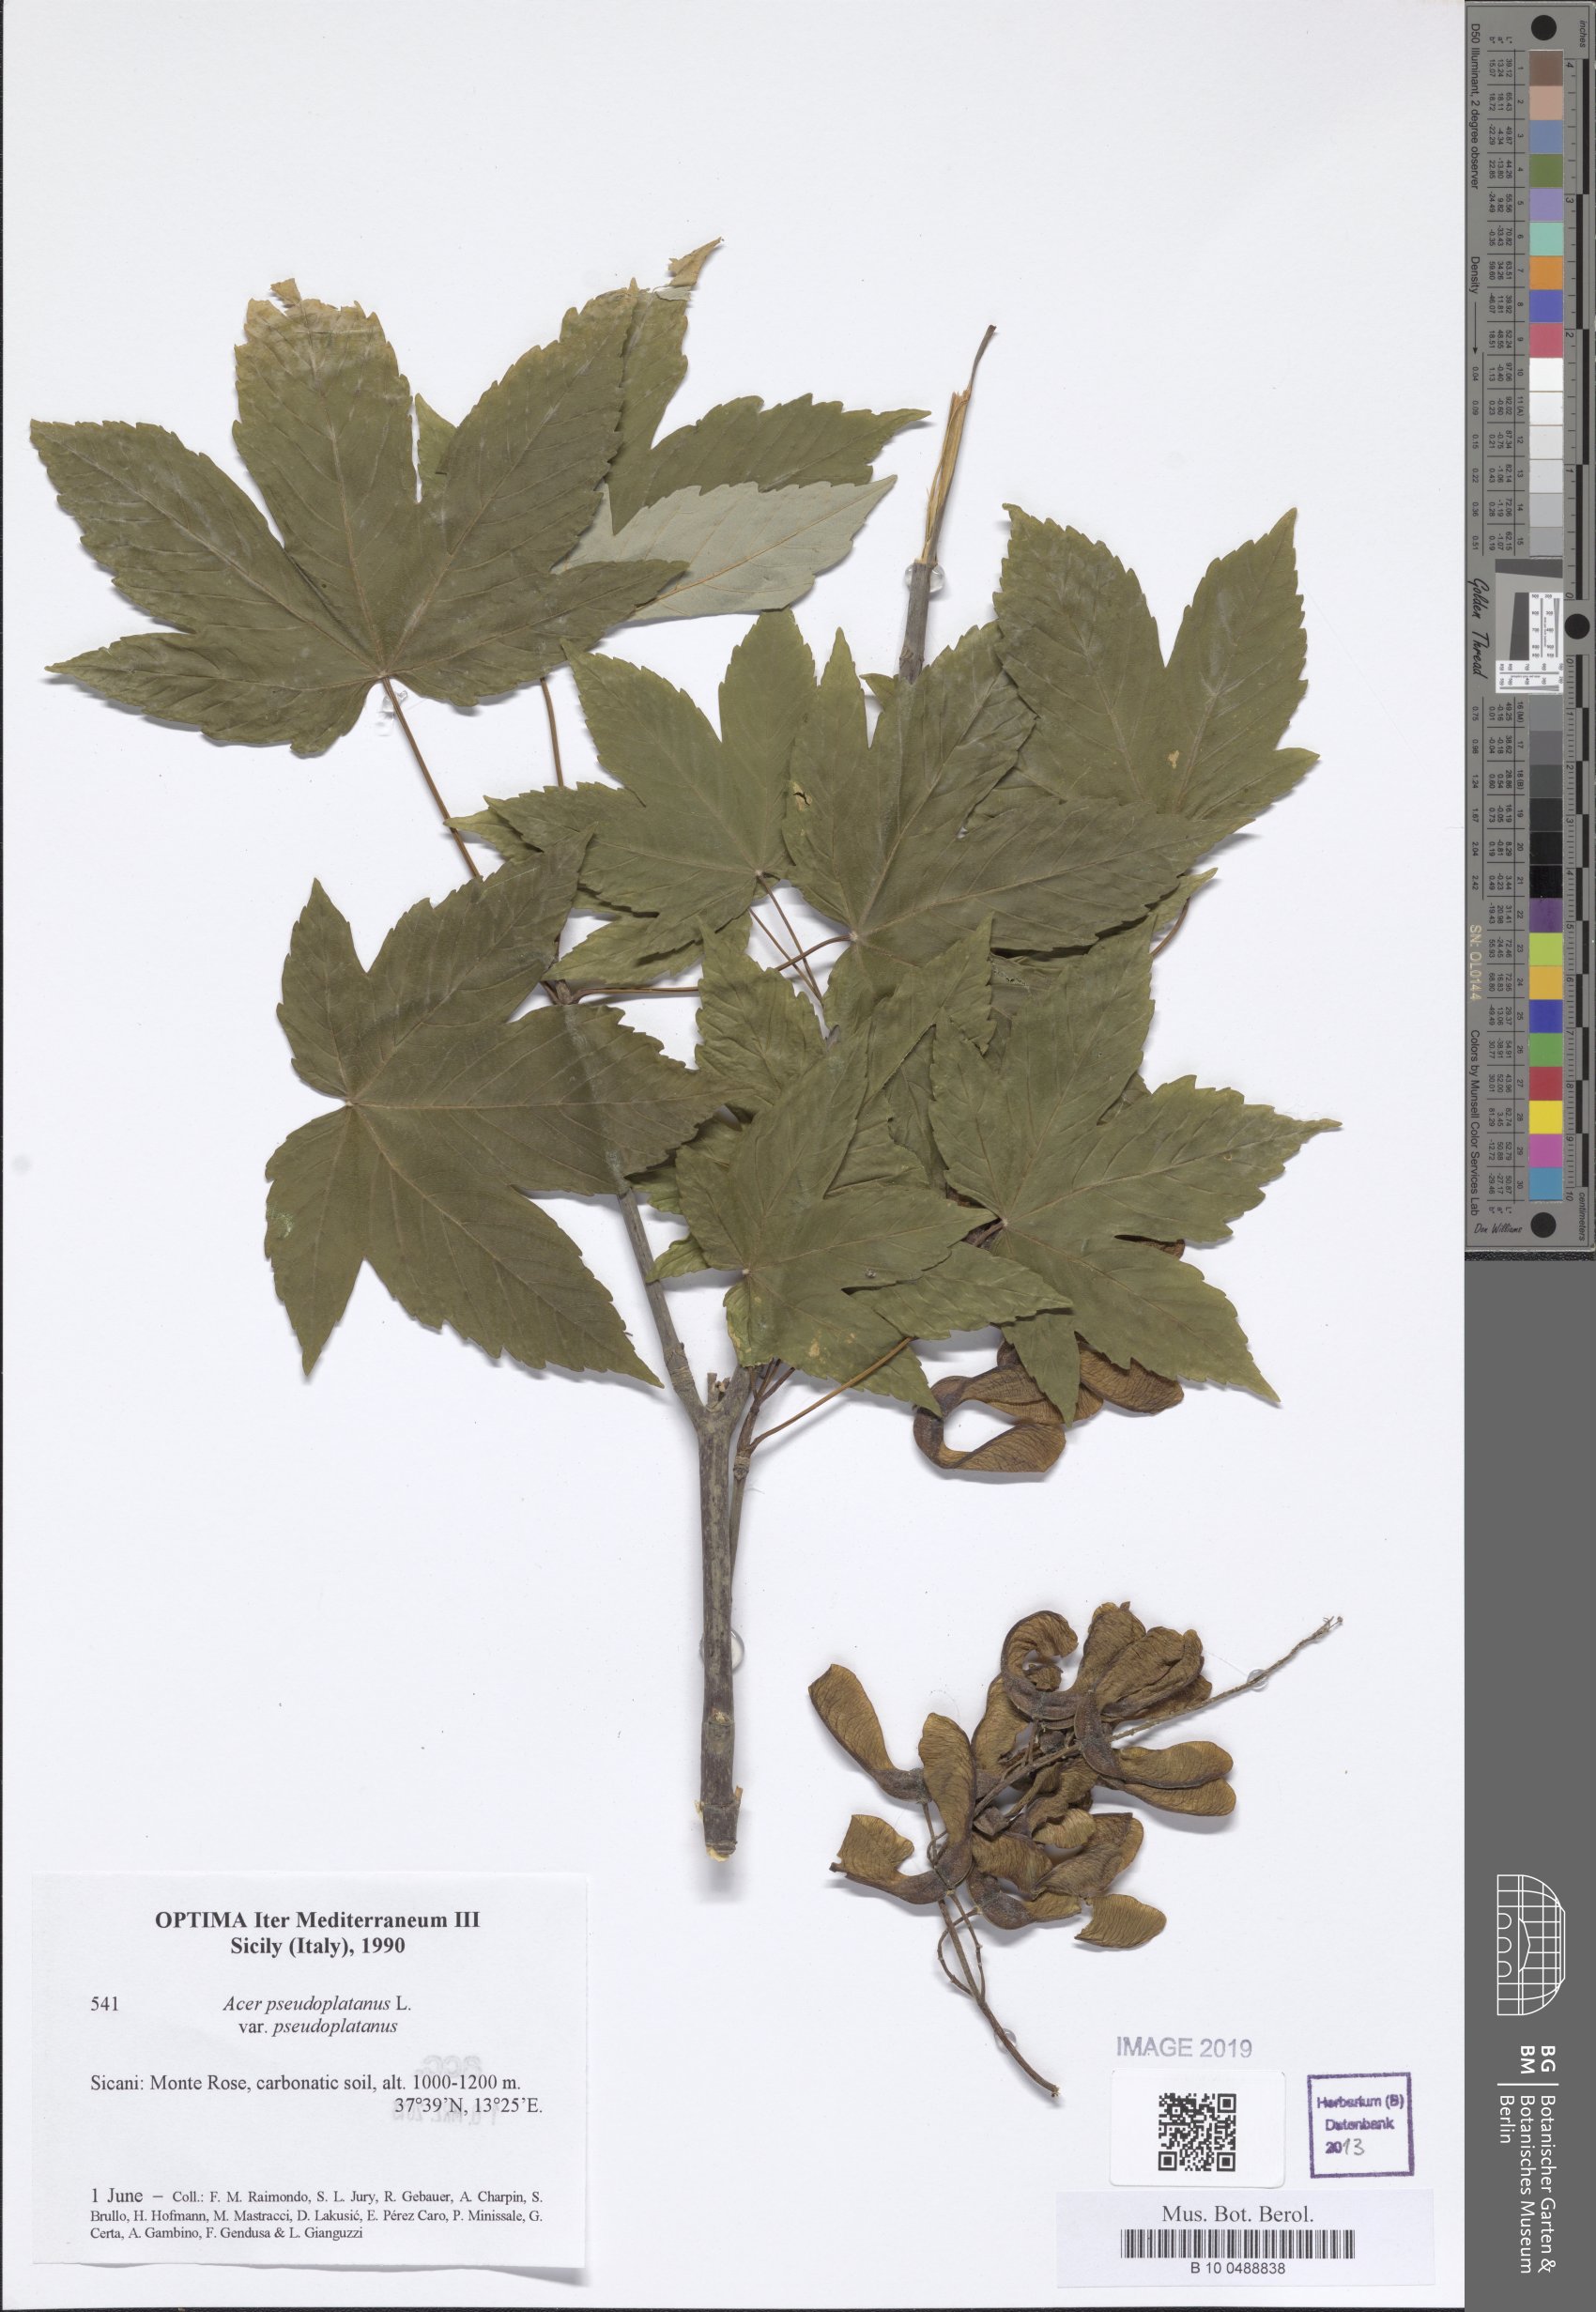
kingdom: Plantae
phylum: Tracheophyta
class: Magnoliopsida
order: Sapindales
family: Sapindaceae
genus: Acer
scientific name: Acer pseudoplatanus
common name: Sycamore
